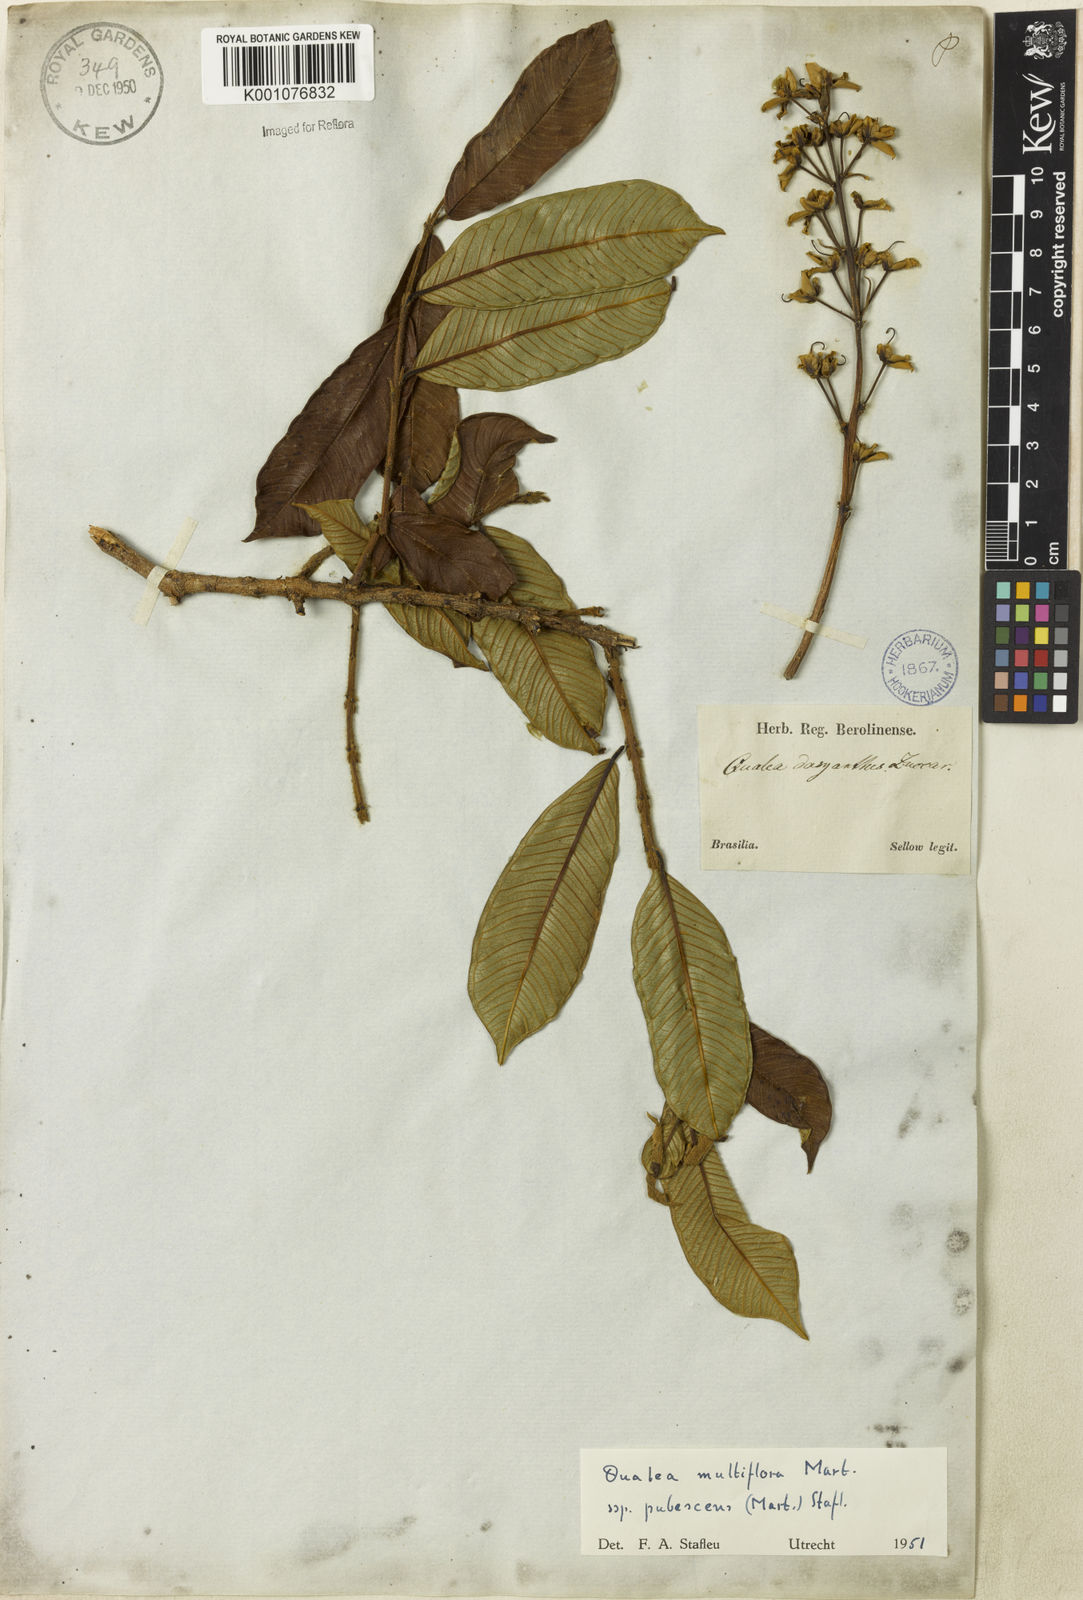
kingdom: Plantae
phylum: Tracheophyta
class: Magnoliopsida
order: Myrtales
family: Vochysiaceae
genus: Qualea
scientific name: Qualea multiflora
